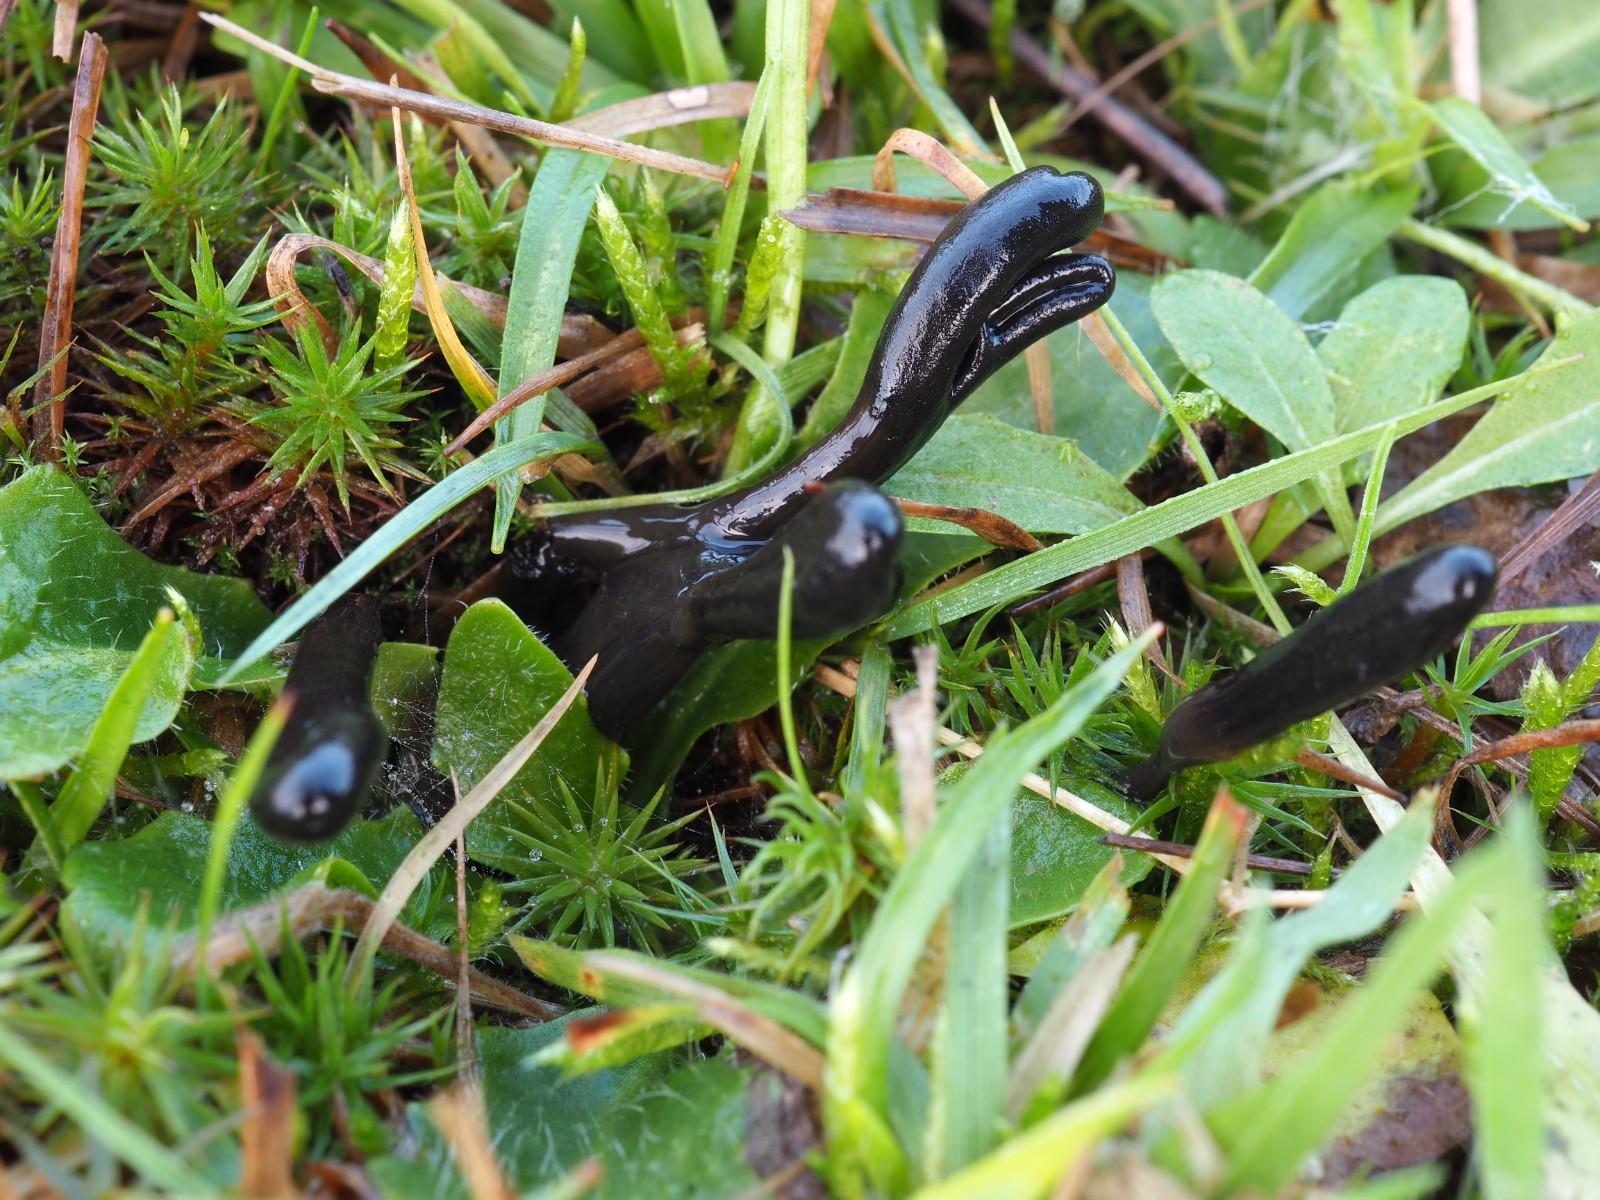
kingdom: Fungi
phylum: Ascomycota
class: Geoglossomycetes
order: Geoglossales
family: Geoglossaceae
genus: Glutinoglossum
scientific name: Glutinoglossum glutinosum
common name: slimet jordtunge
